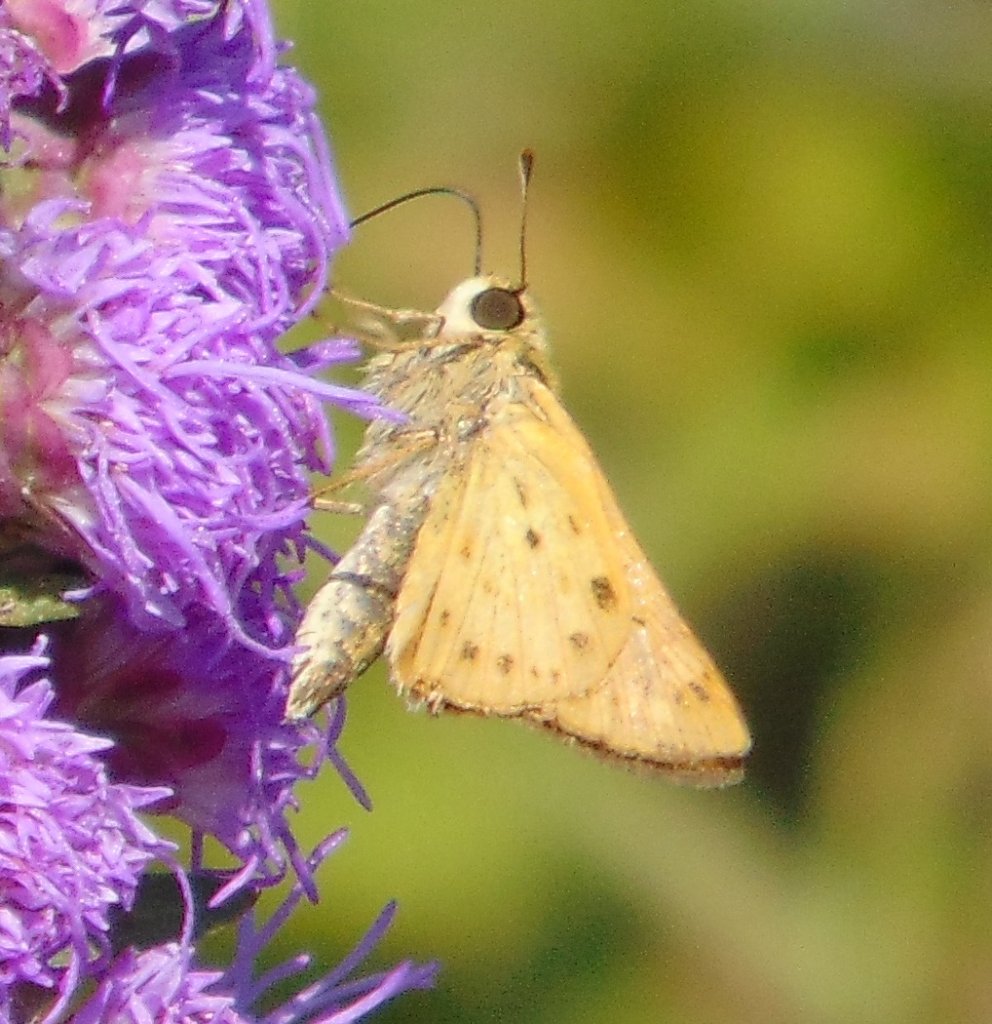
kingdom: Animalia
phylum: Arthropoda
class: Insecta
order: Lepidoptera
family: Hesperiidae
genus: Hylephila
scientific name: Hylephila phyleus
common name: Fiery Skipper
